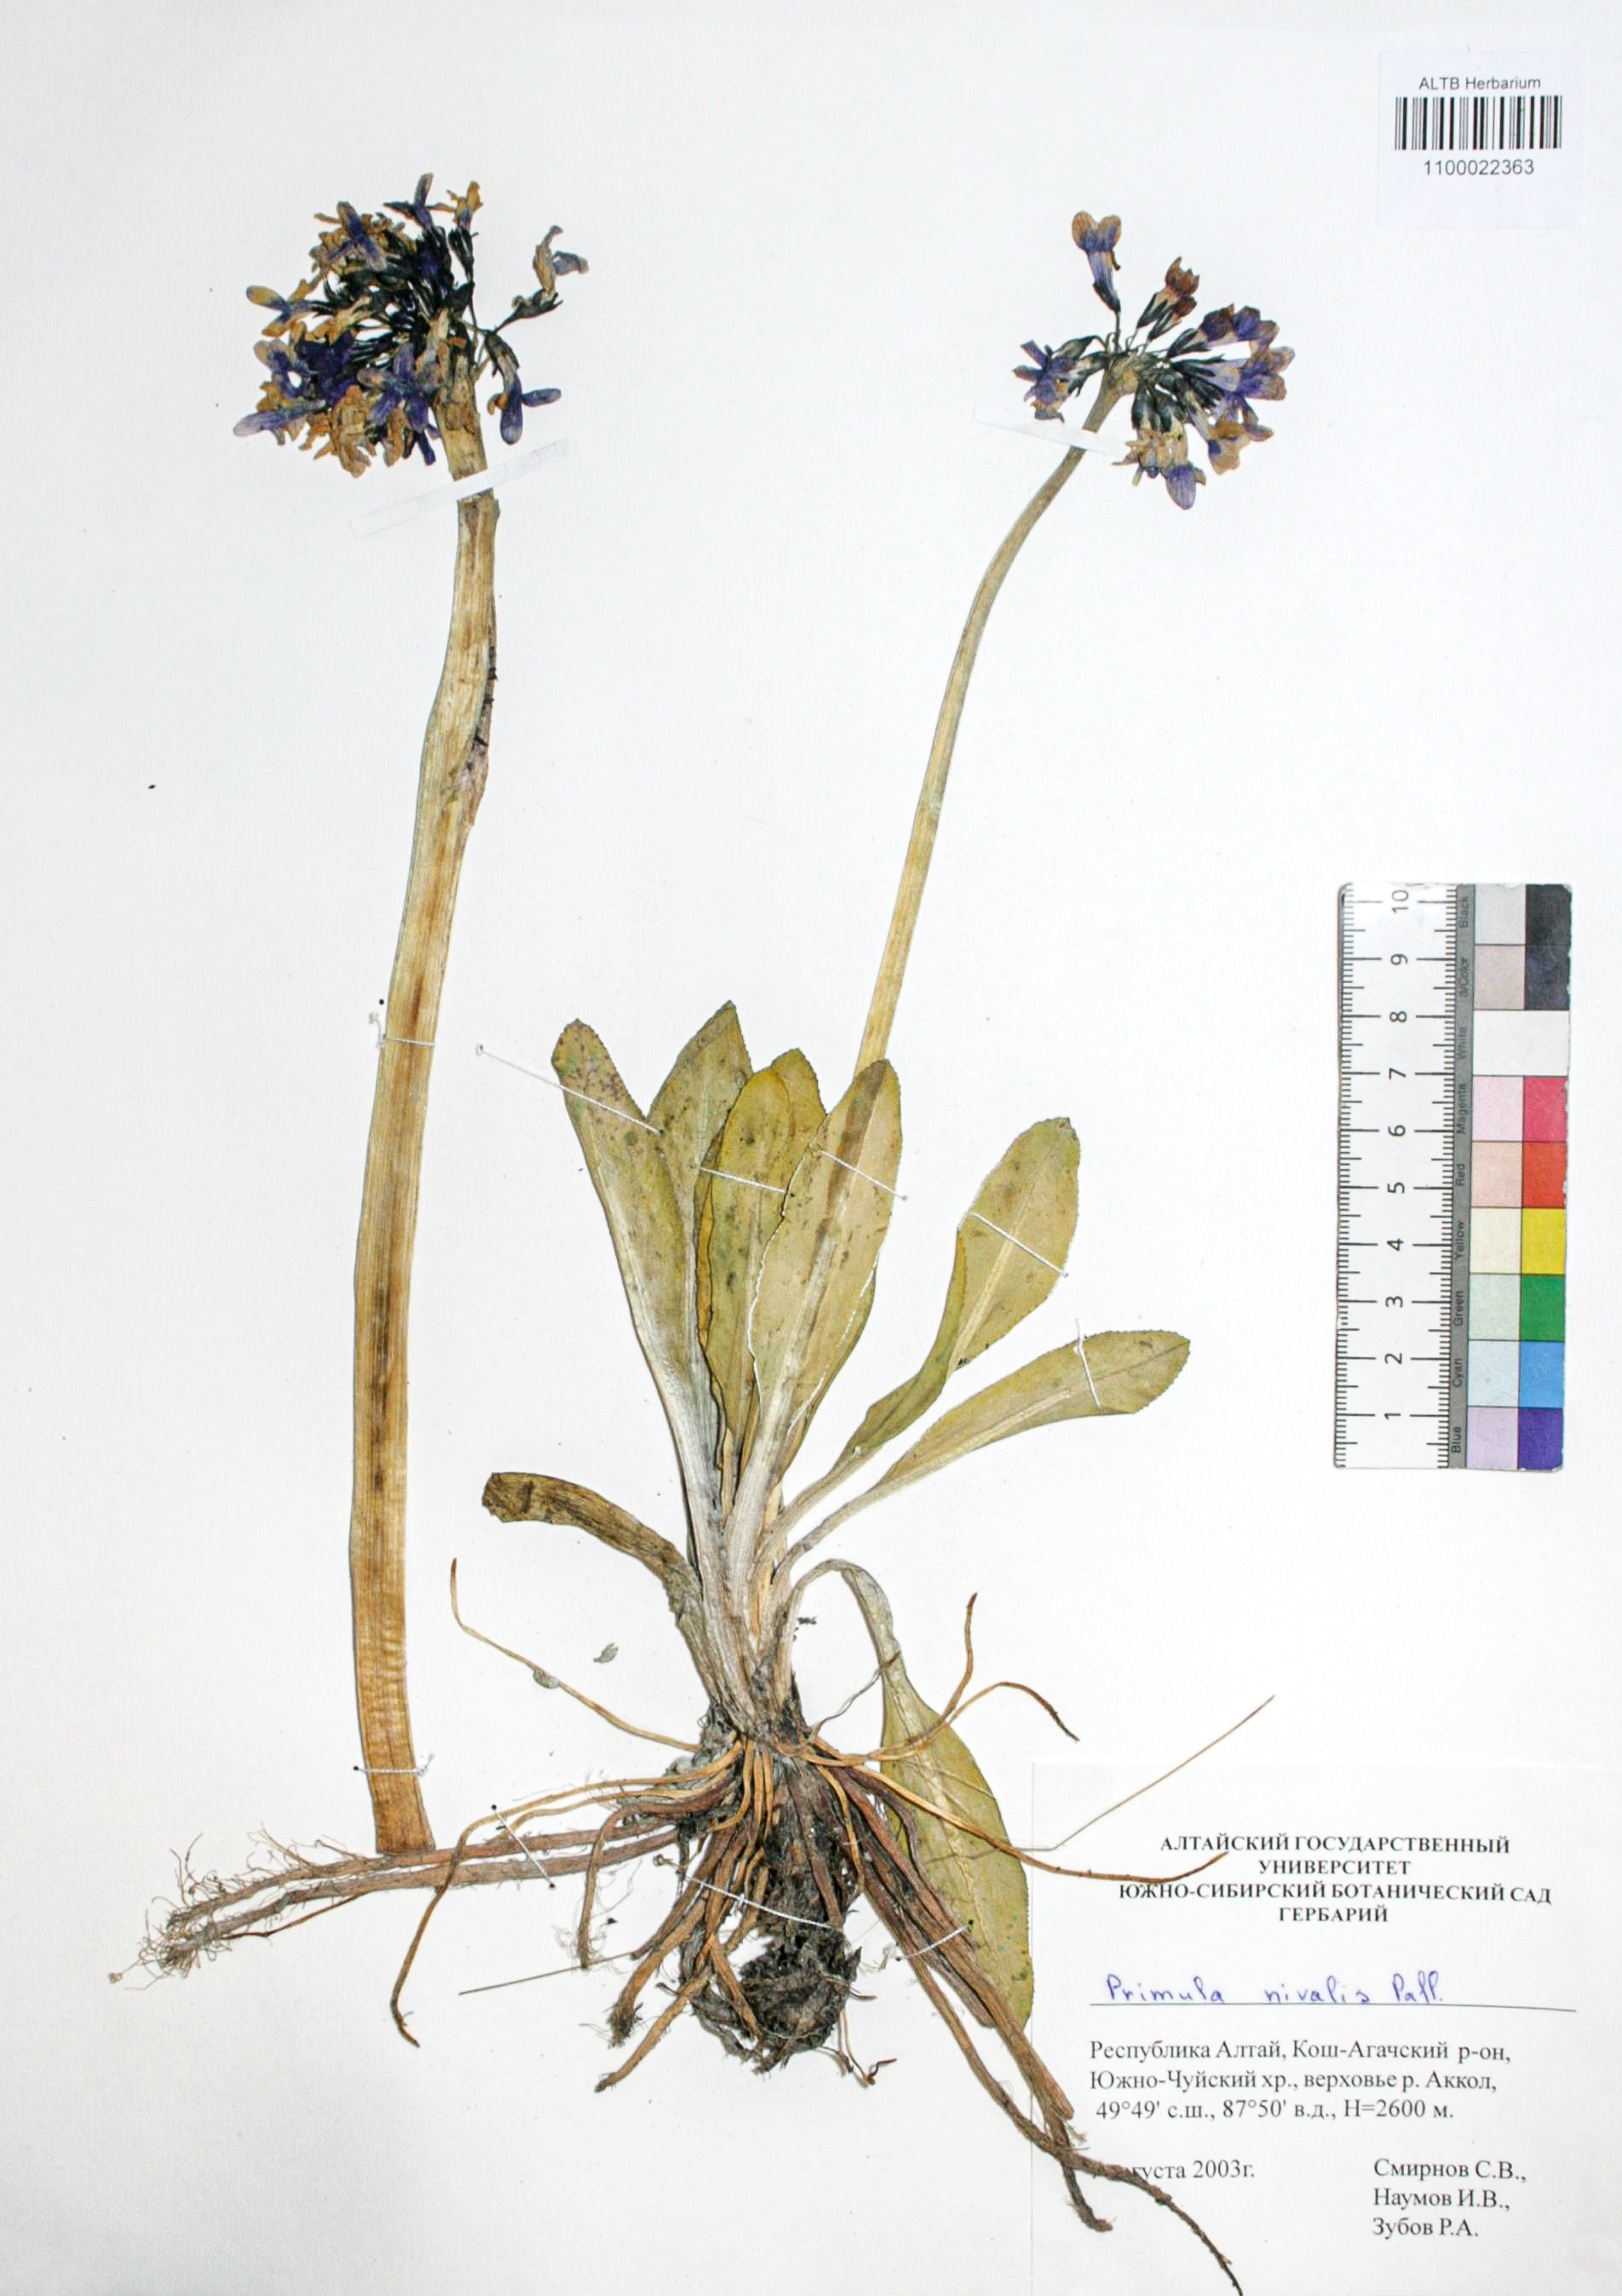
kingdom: Plantae
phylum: Tracheophyta
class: Magnoliopsida
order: Ericales
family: Primulaceae
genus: Primula
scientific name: Primula nivalis
